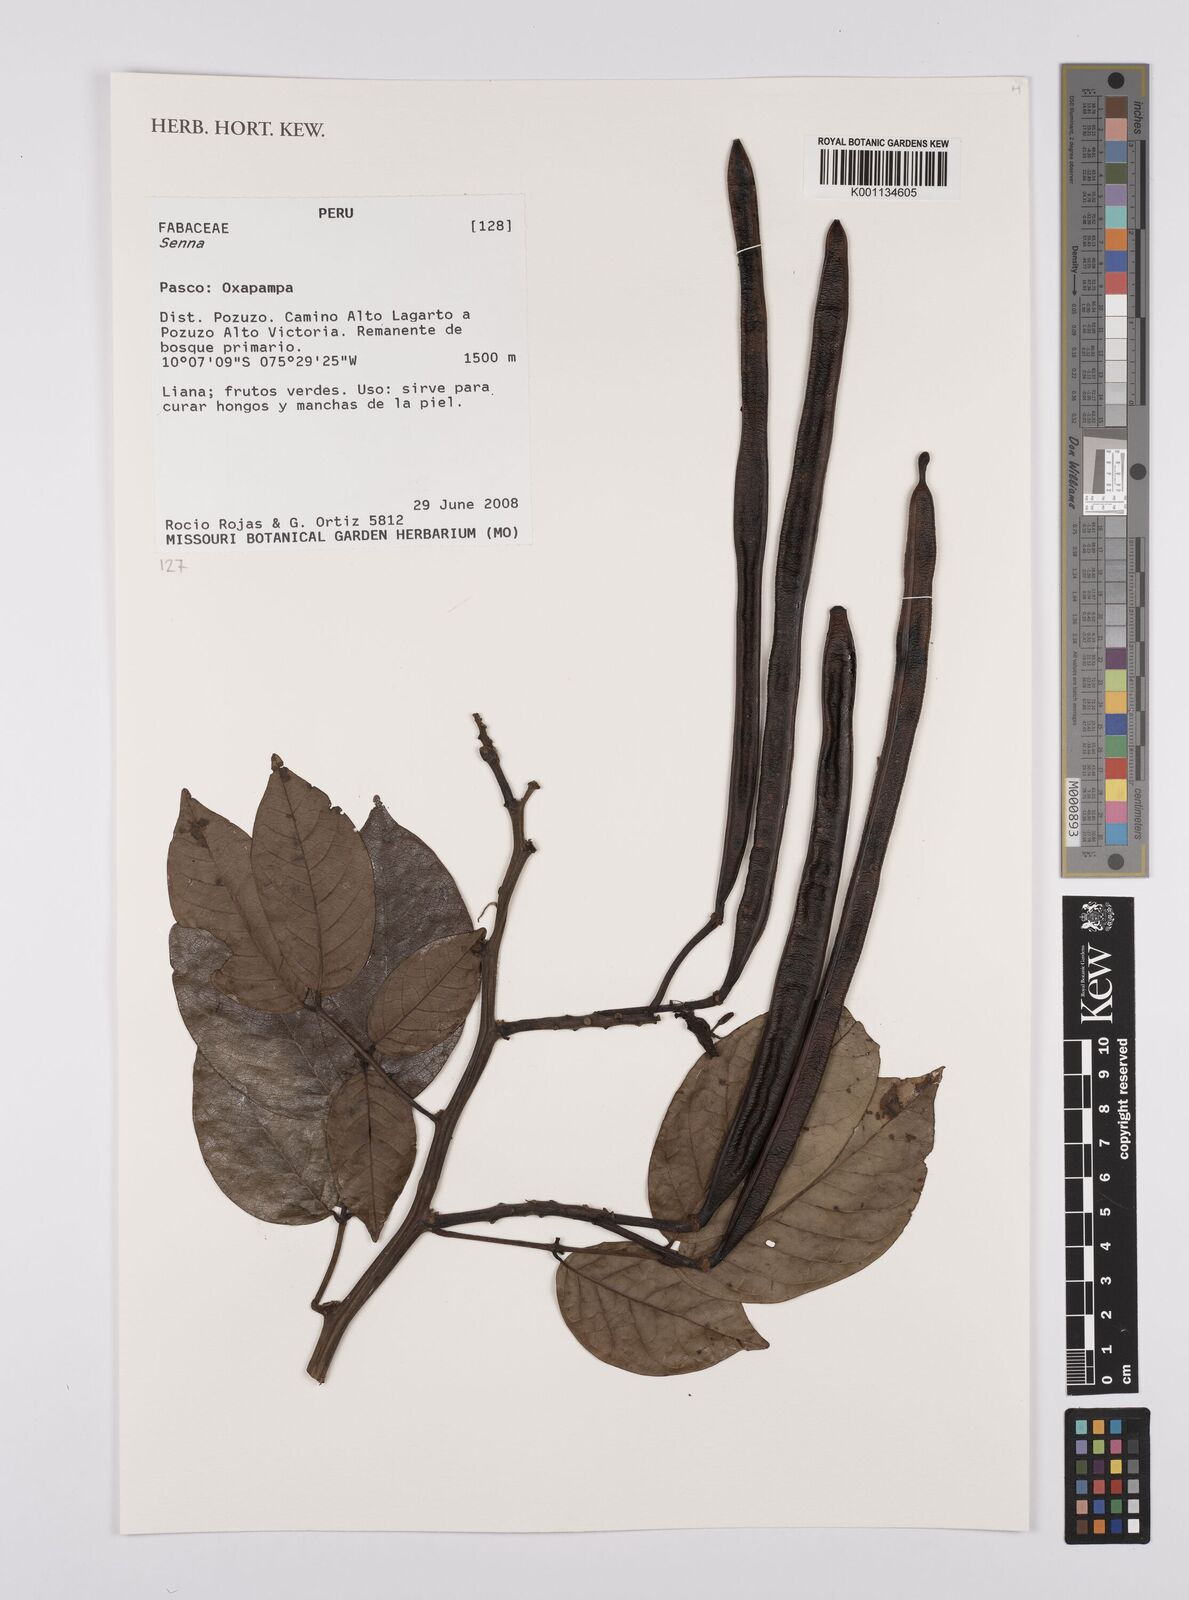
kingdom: Plantae
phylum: Tracheophyta
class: Magnoliopsida
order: Fabales
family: Fabaceae
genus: Senna
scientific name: Senna
